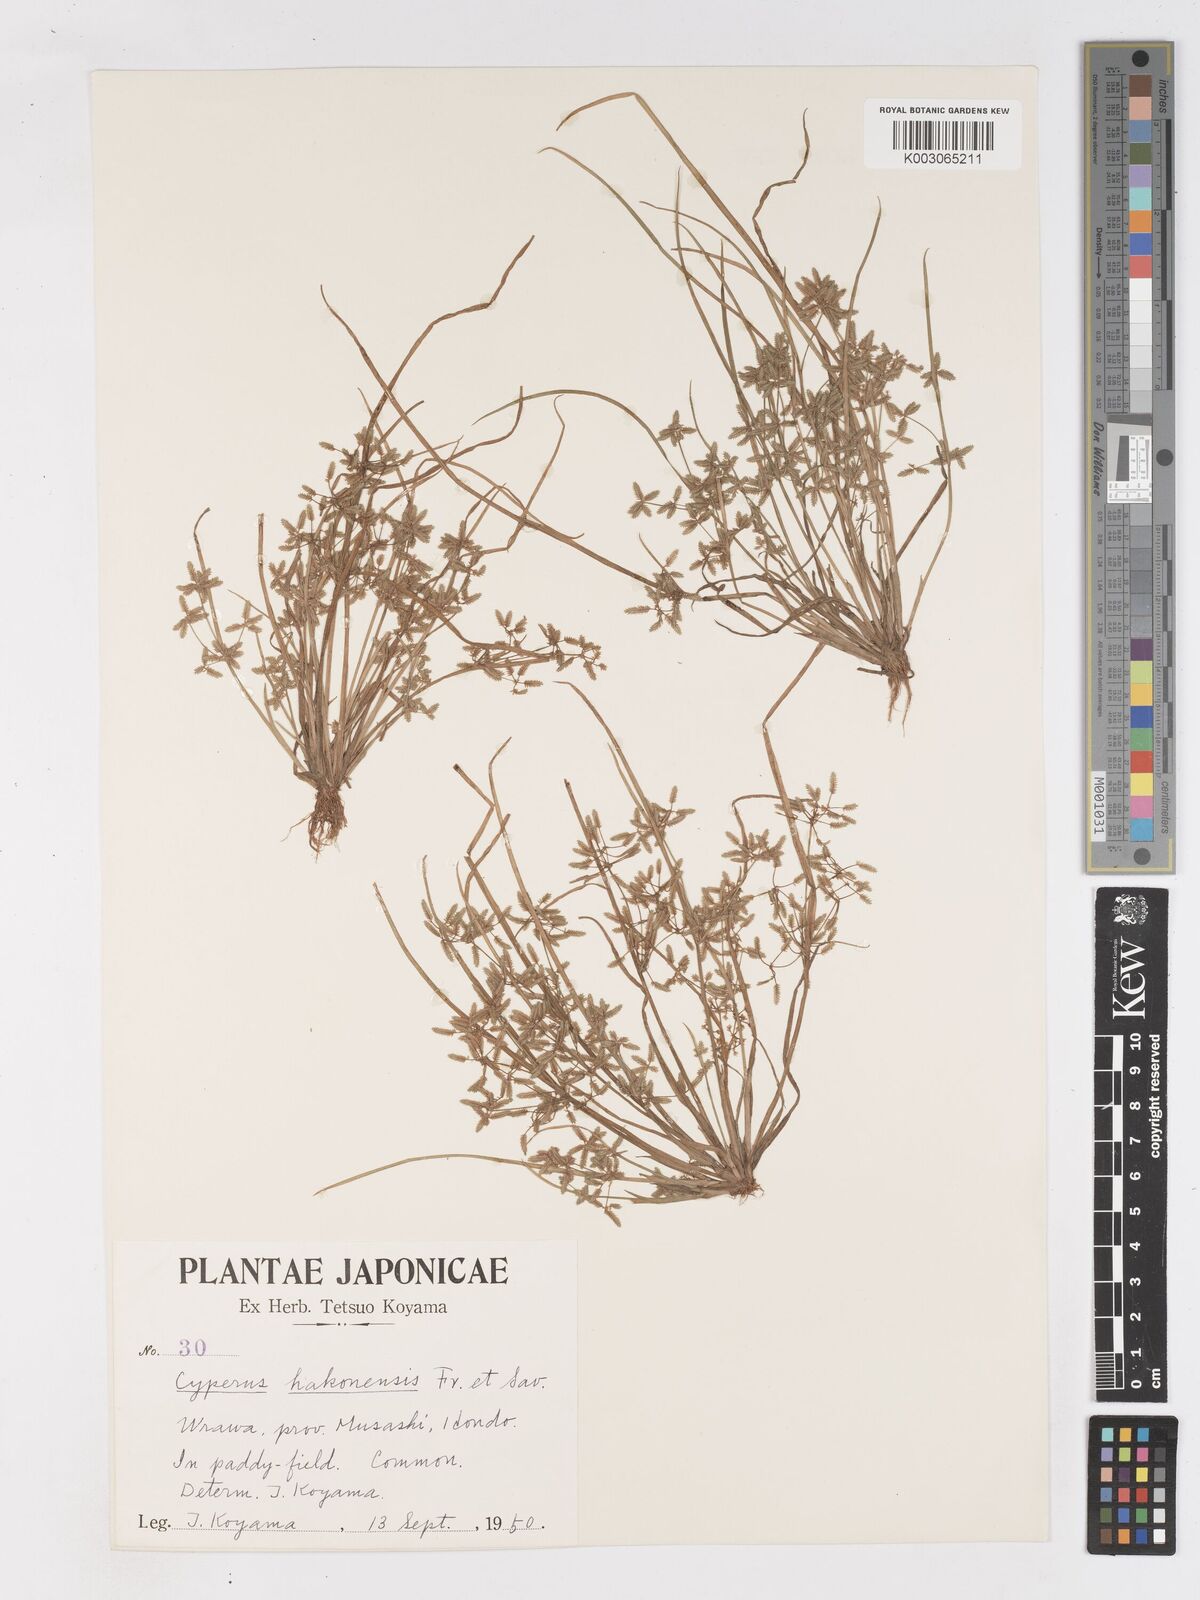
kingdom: Plantae
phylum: Tracheophyta
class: Liliopsida
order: Poales
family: Cyperaceae
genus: Cyperus
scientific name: Cyperus flaccidus
